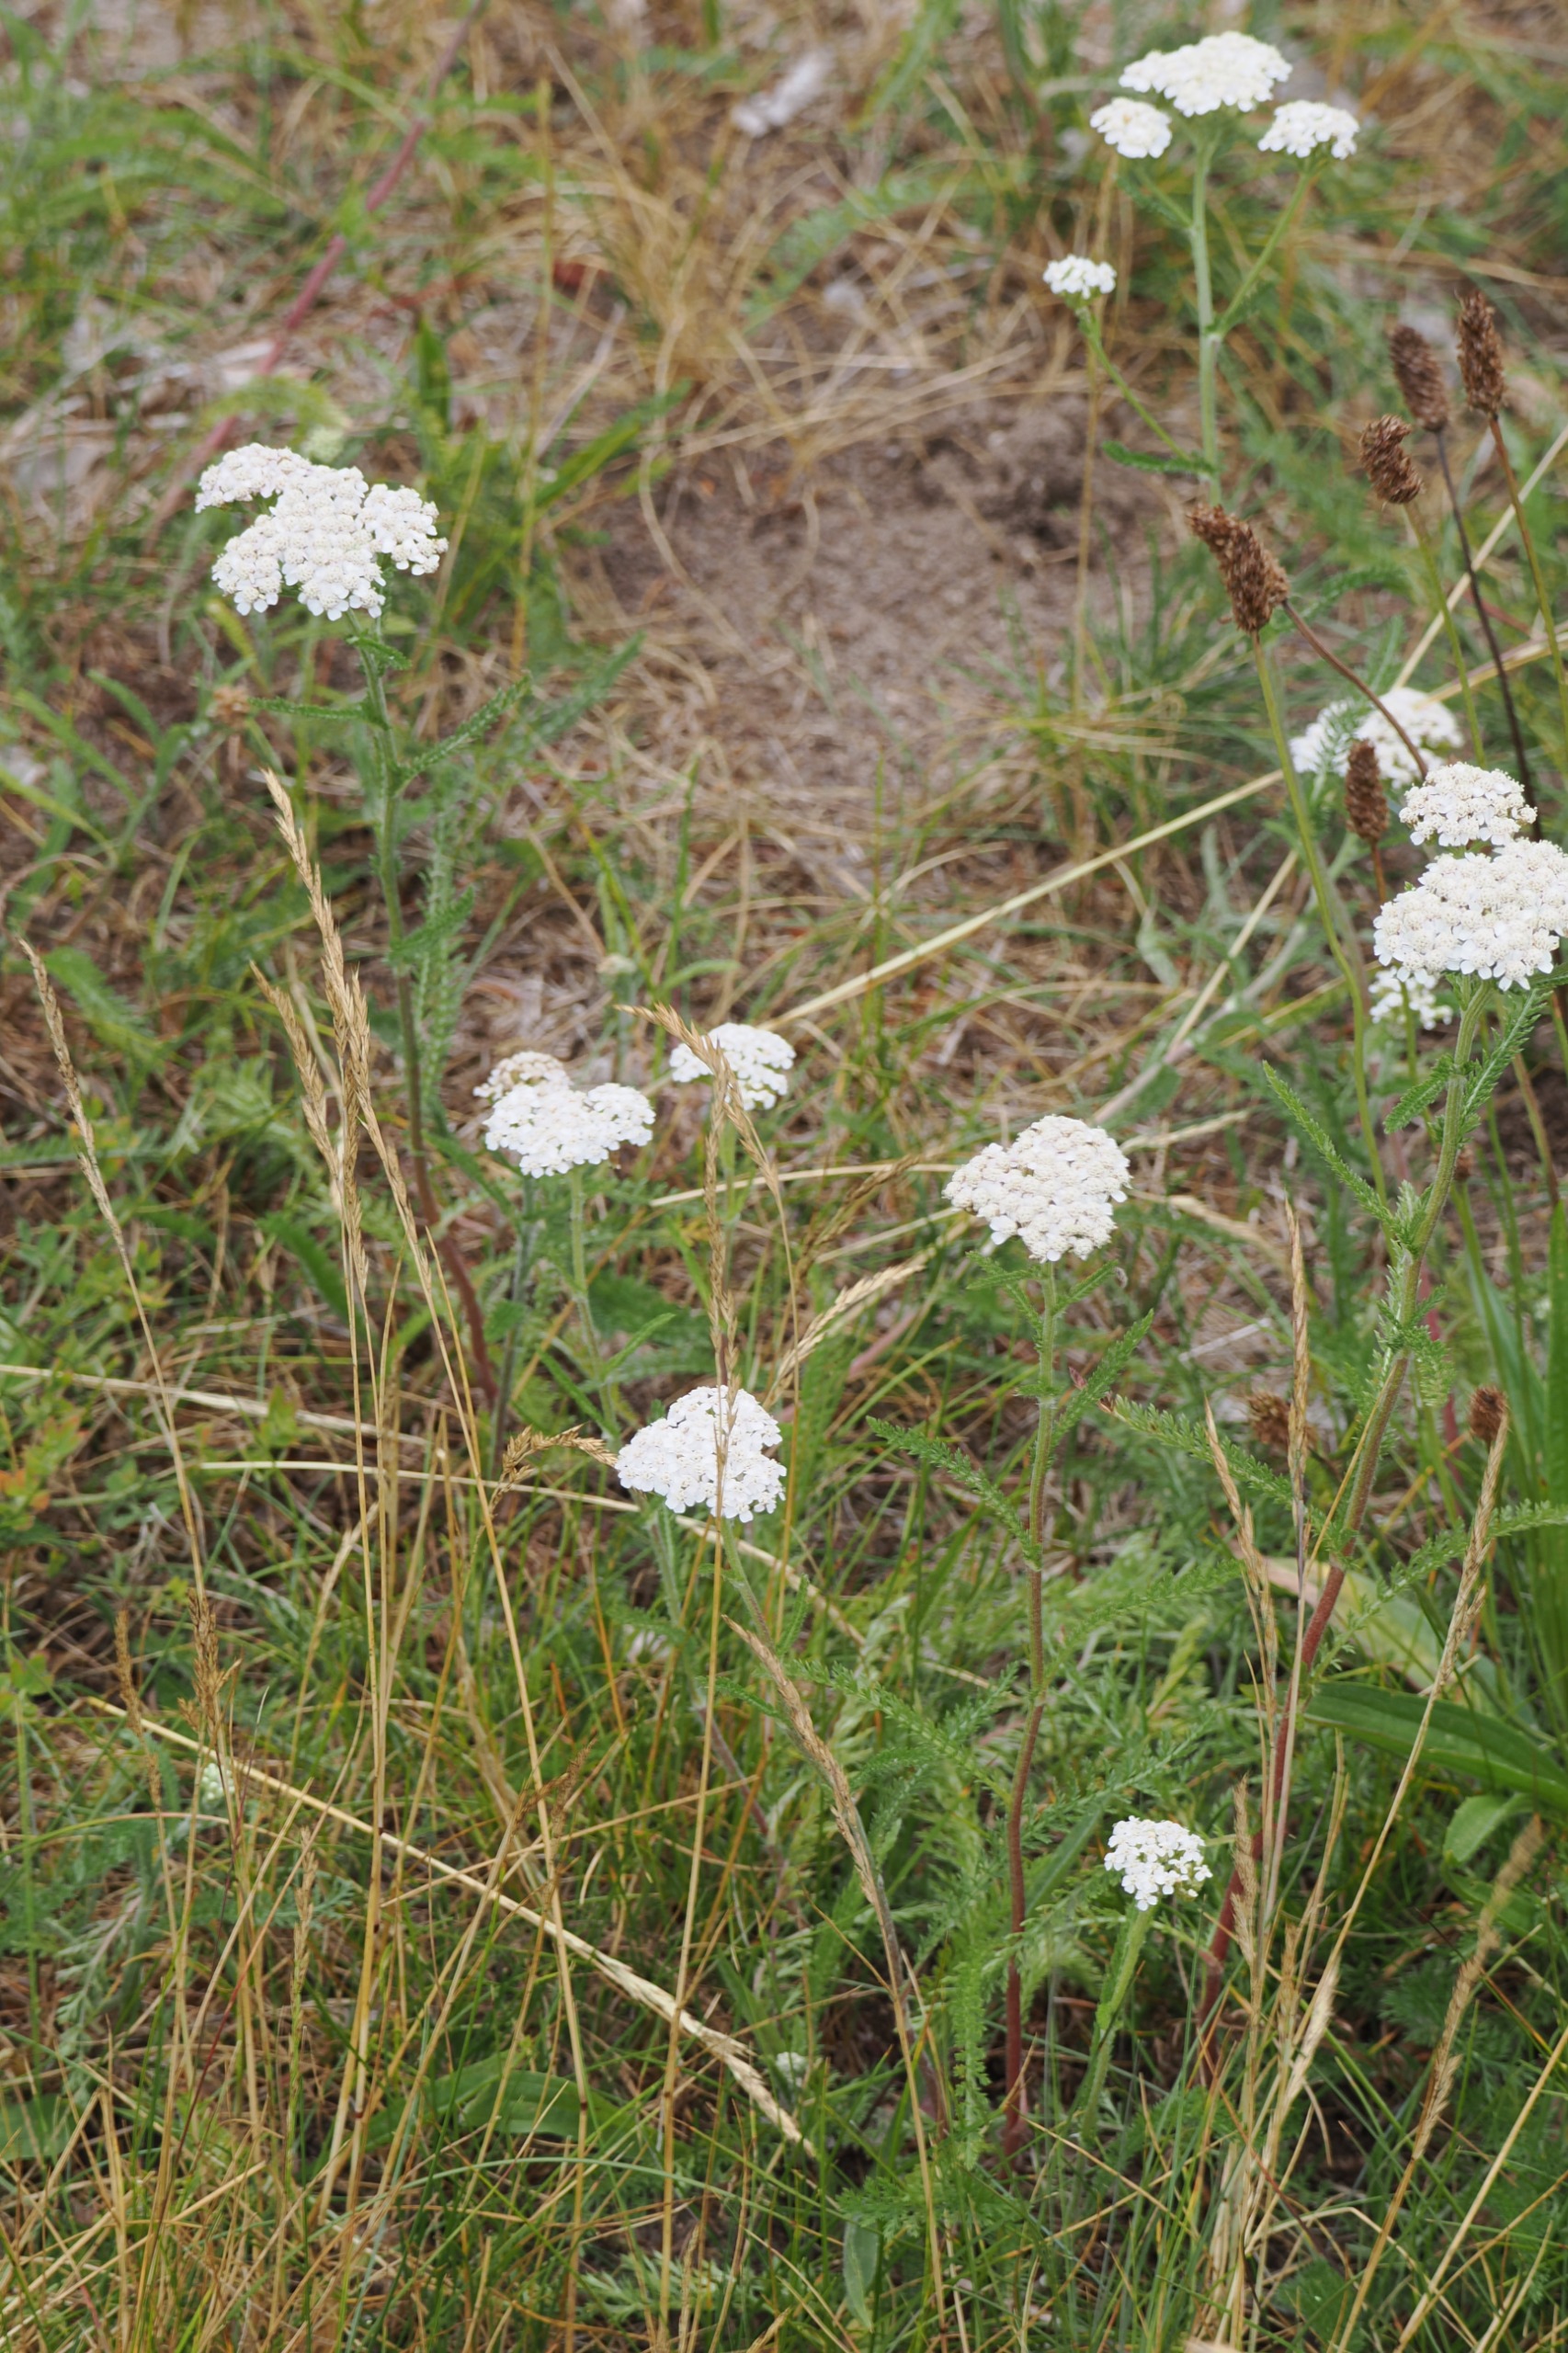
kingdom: Plantae
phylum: Tracheophyta
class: Magnoliopsida
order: Asterales
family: Asteraceae
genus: Achillea
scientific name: Achillea millefolium
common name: Almindelig røllike
